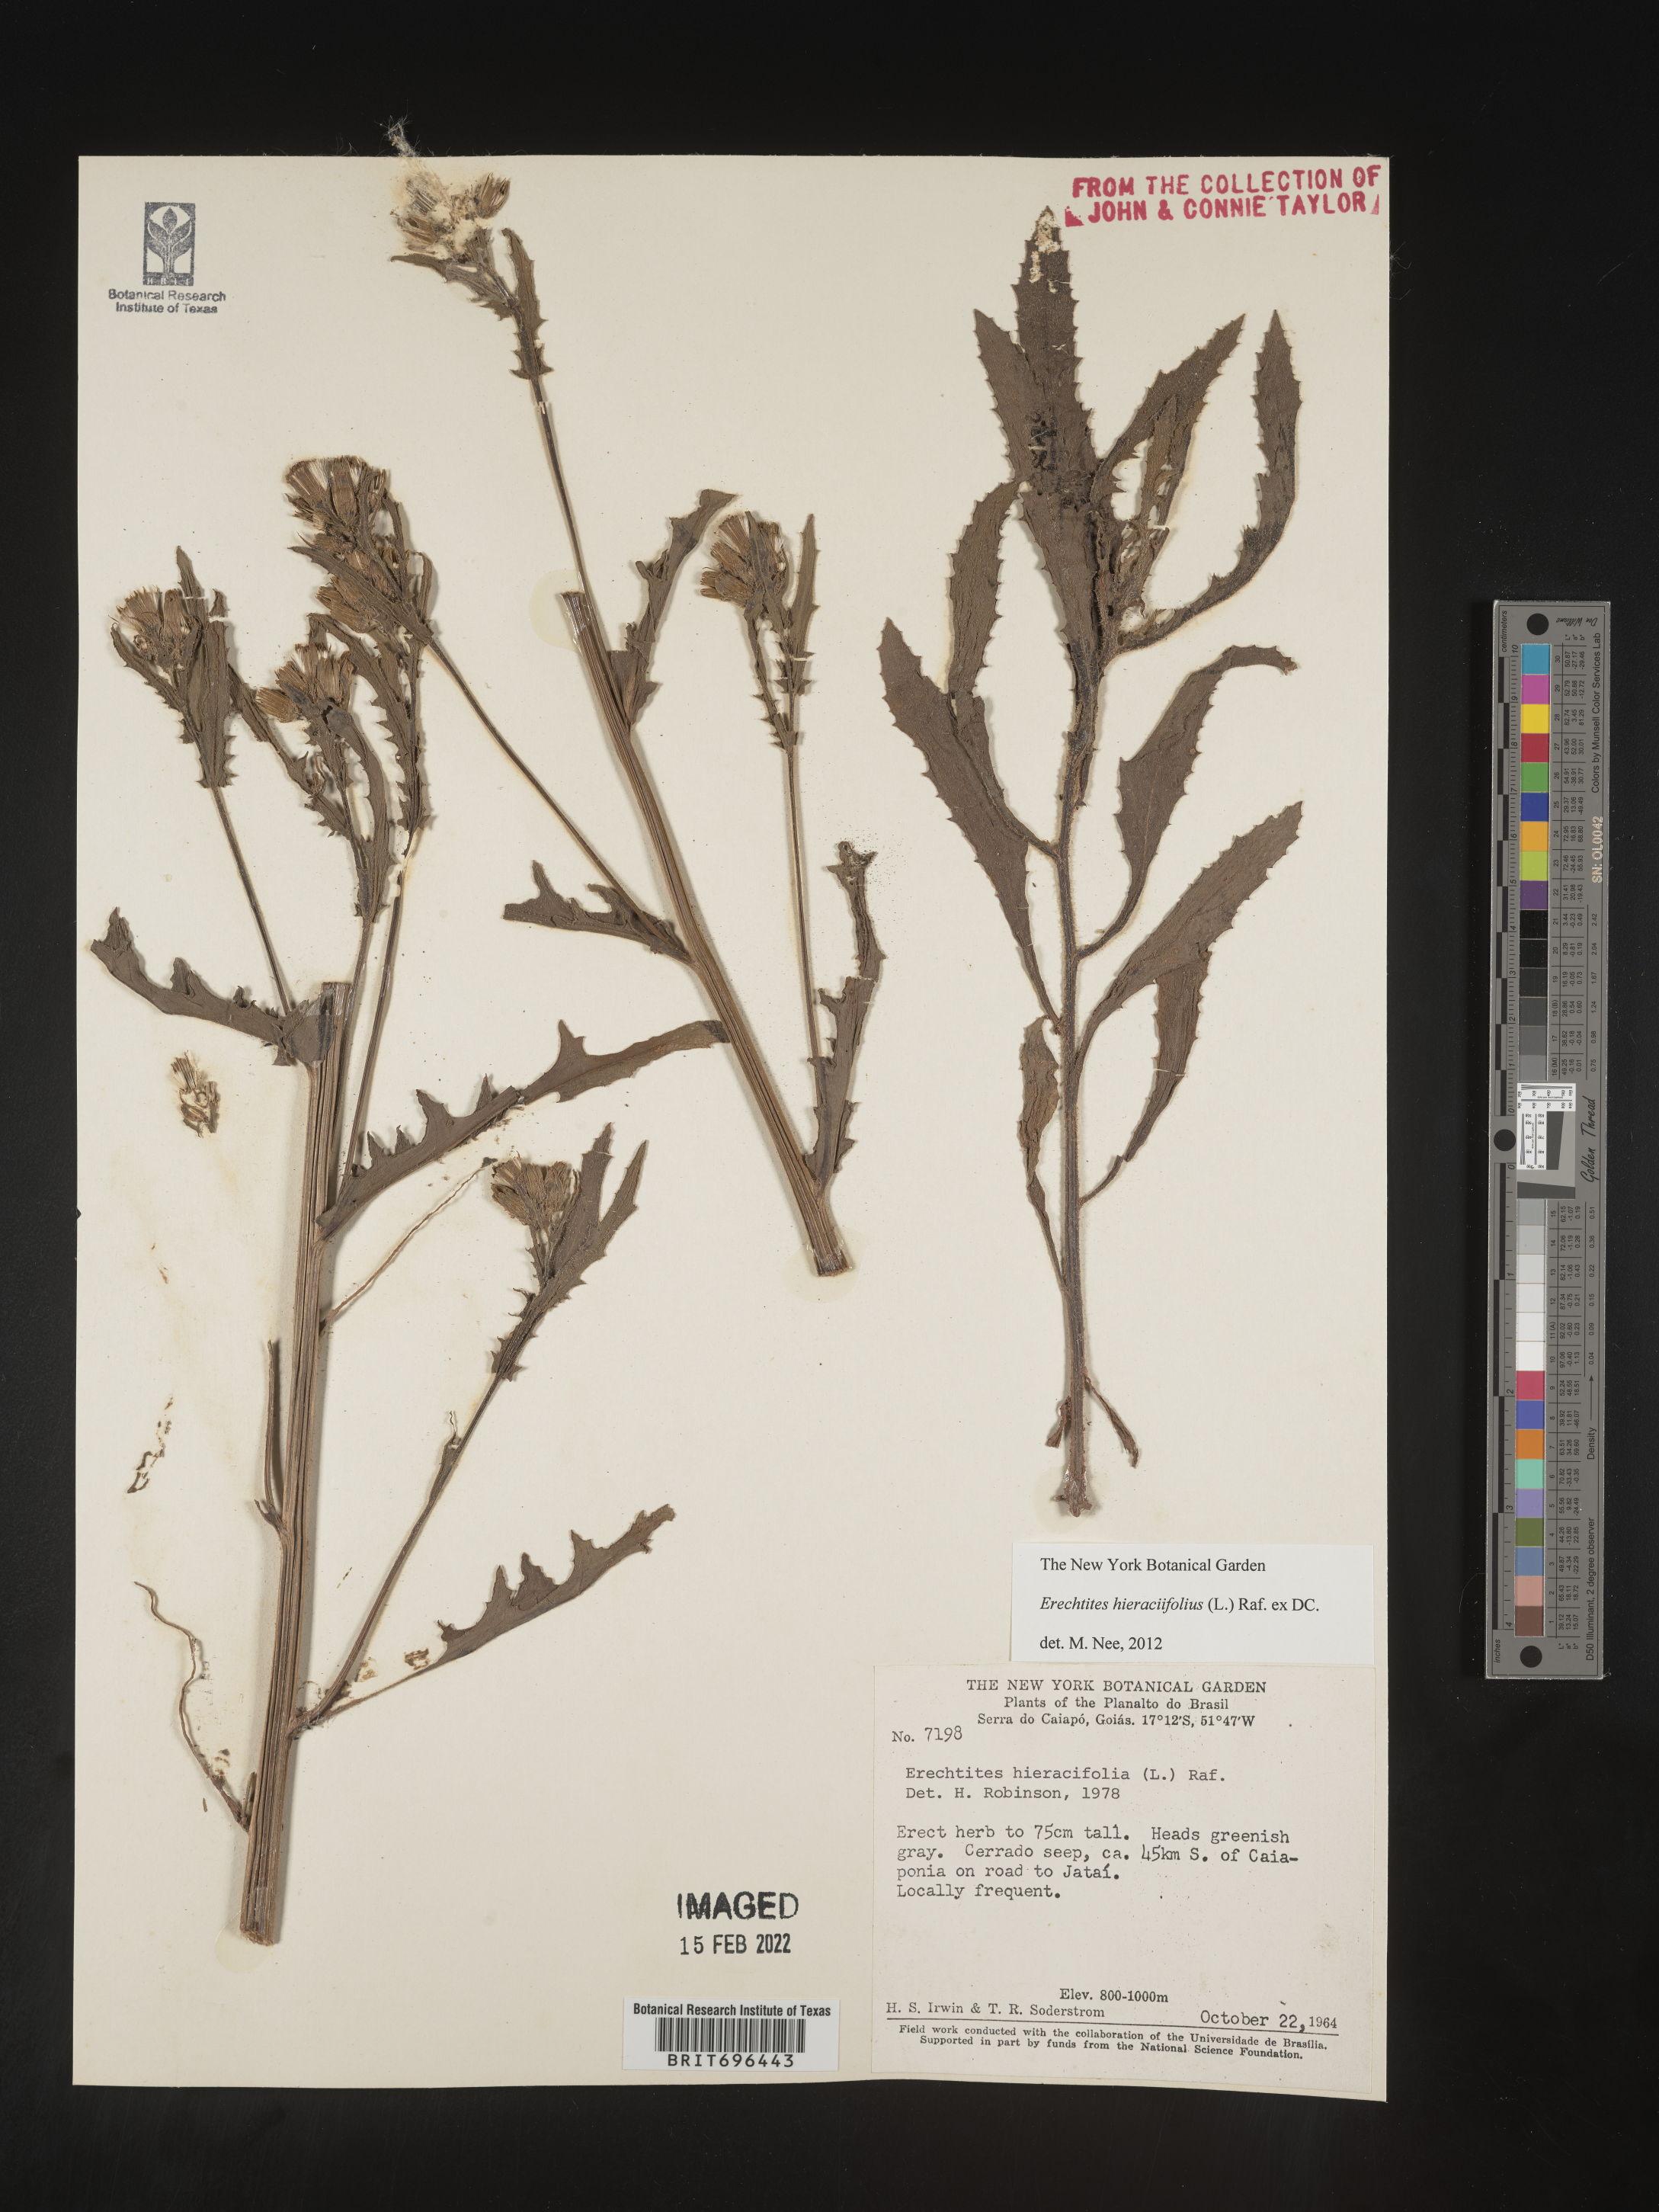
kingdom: Plantae
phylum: Tracheophyta
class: Magnoliopsida
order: Asterales
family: Asteraceae
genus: Erechtites
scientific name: Erechtites
